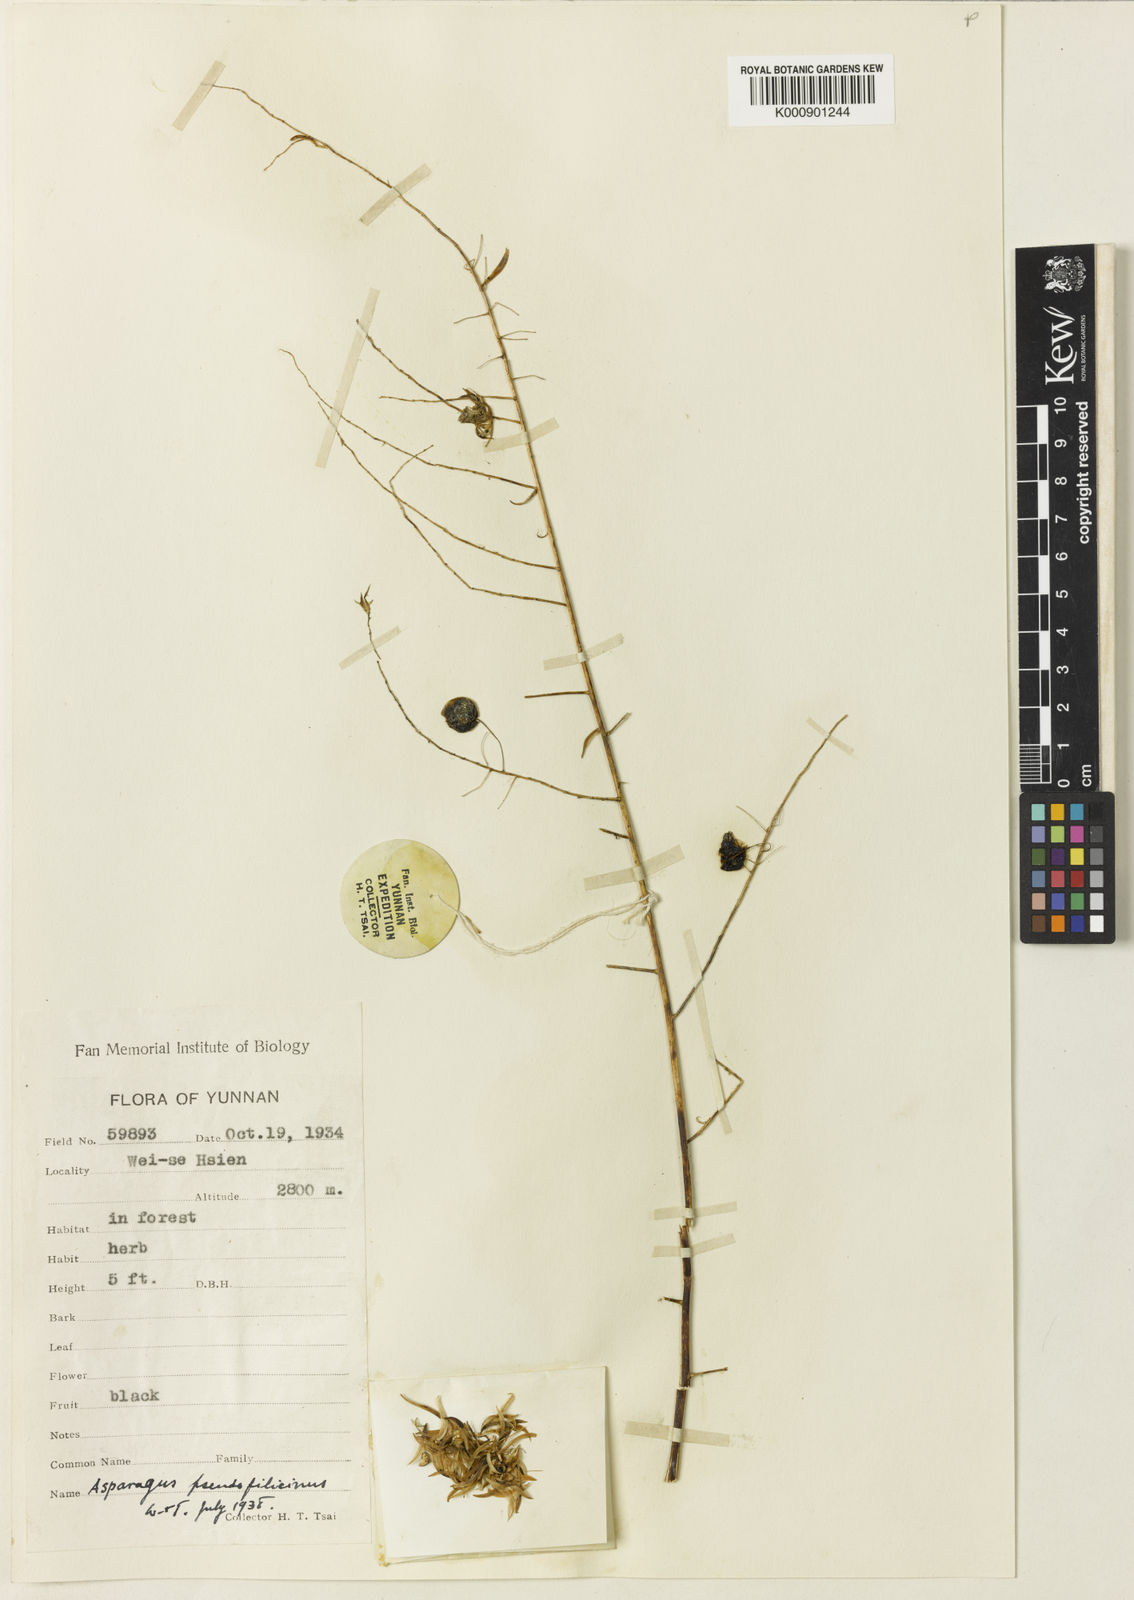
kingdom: Plantae
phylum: Tracheophyta
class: Liliopsida
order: Asparagales
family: Asparagaceae
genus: Asparagus
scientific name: Asparagus
